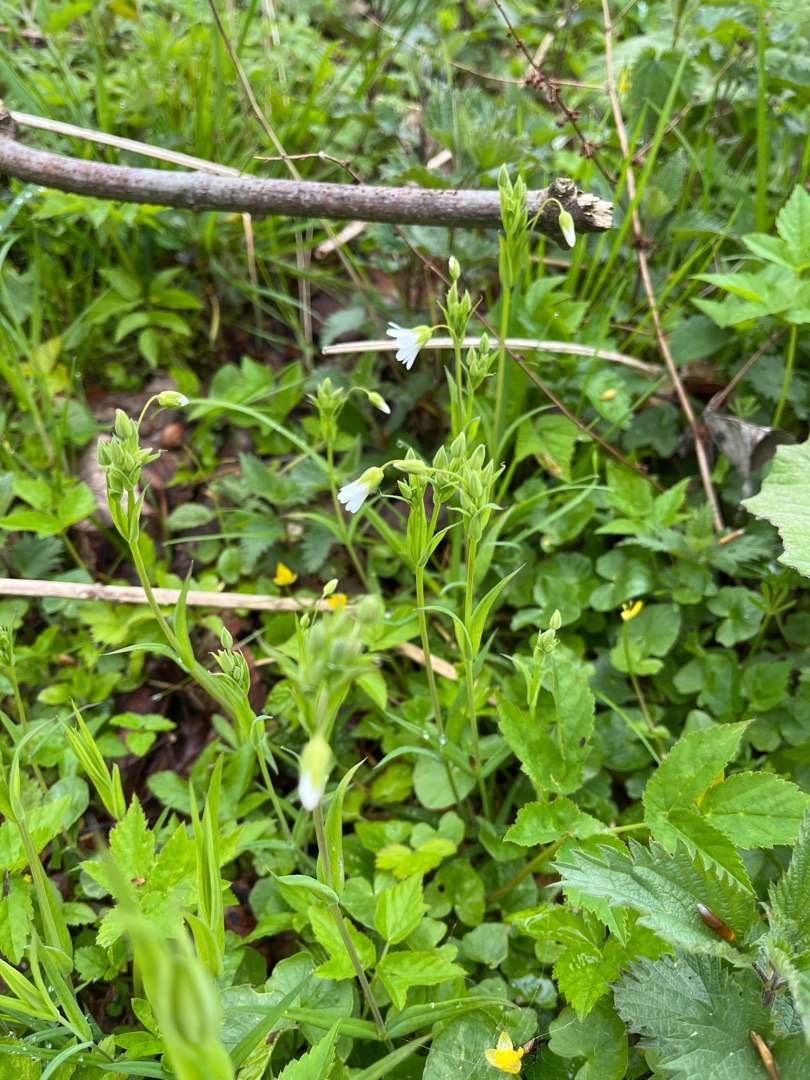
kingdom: Plantae
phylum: Tracheophyta
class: Magnoliopsida
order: Caryophyllales
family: Caryophyllaceae
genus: Rabelera
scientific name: Rabelera holostea
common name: Stor fladstjerne
